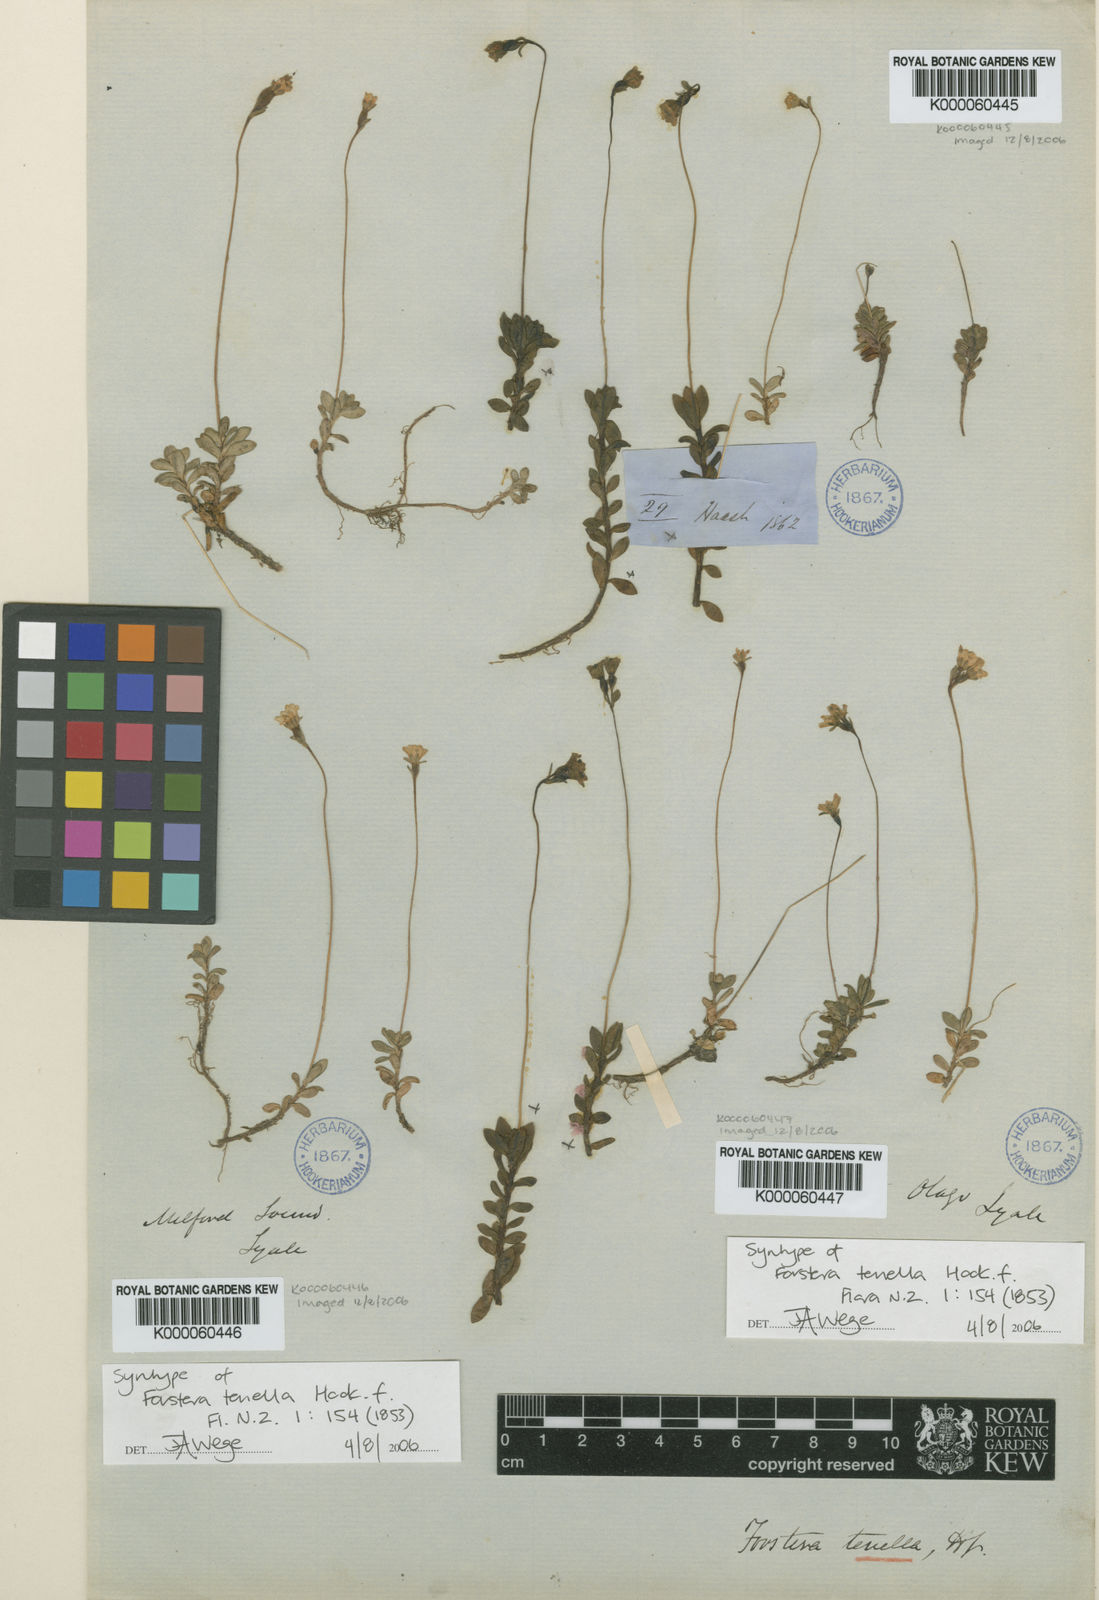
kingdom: Plantae
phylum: Tracheophyta
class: Magnoliopsida
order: Asterales
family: Stylidiaceae
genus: Forstera
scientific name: Forstera tenella
